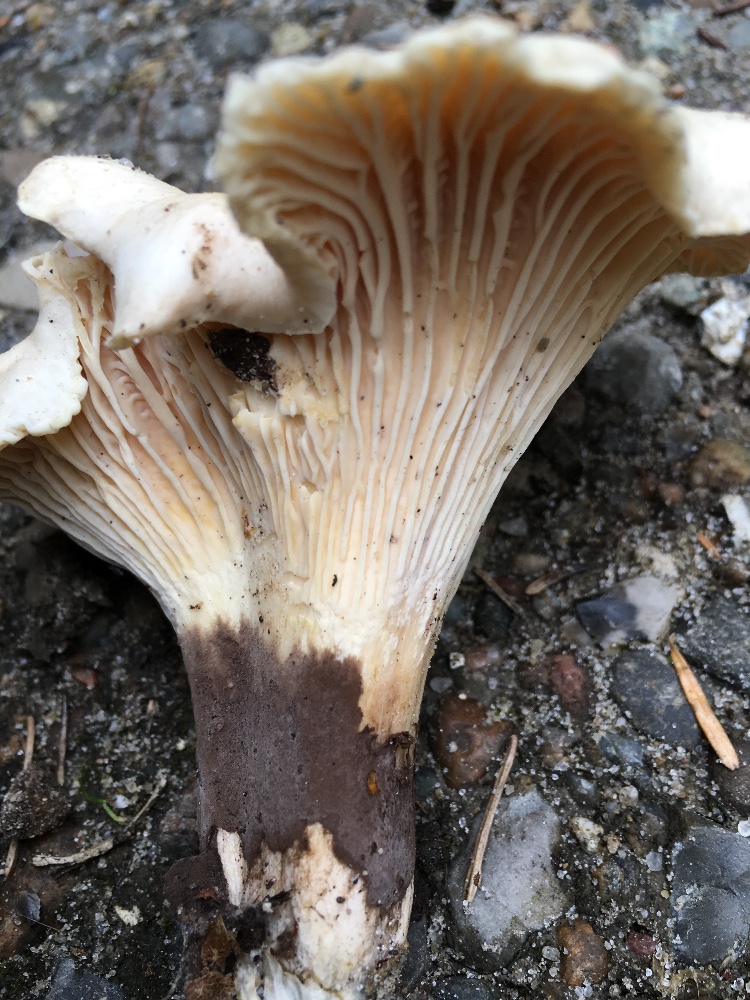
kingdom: Fungi
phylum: Basidiomycota
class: Agaricomycetes
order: Cantharellales
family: Hydnaceae
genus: Cantharellus
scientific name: Cantharellus
